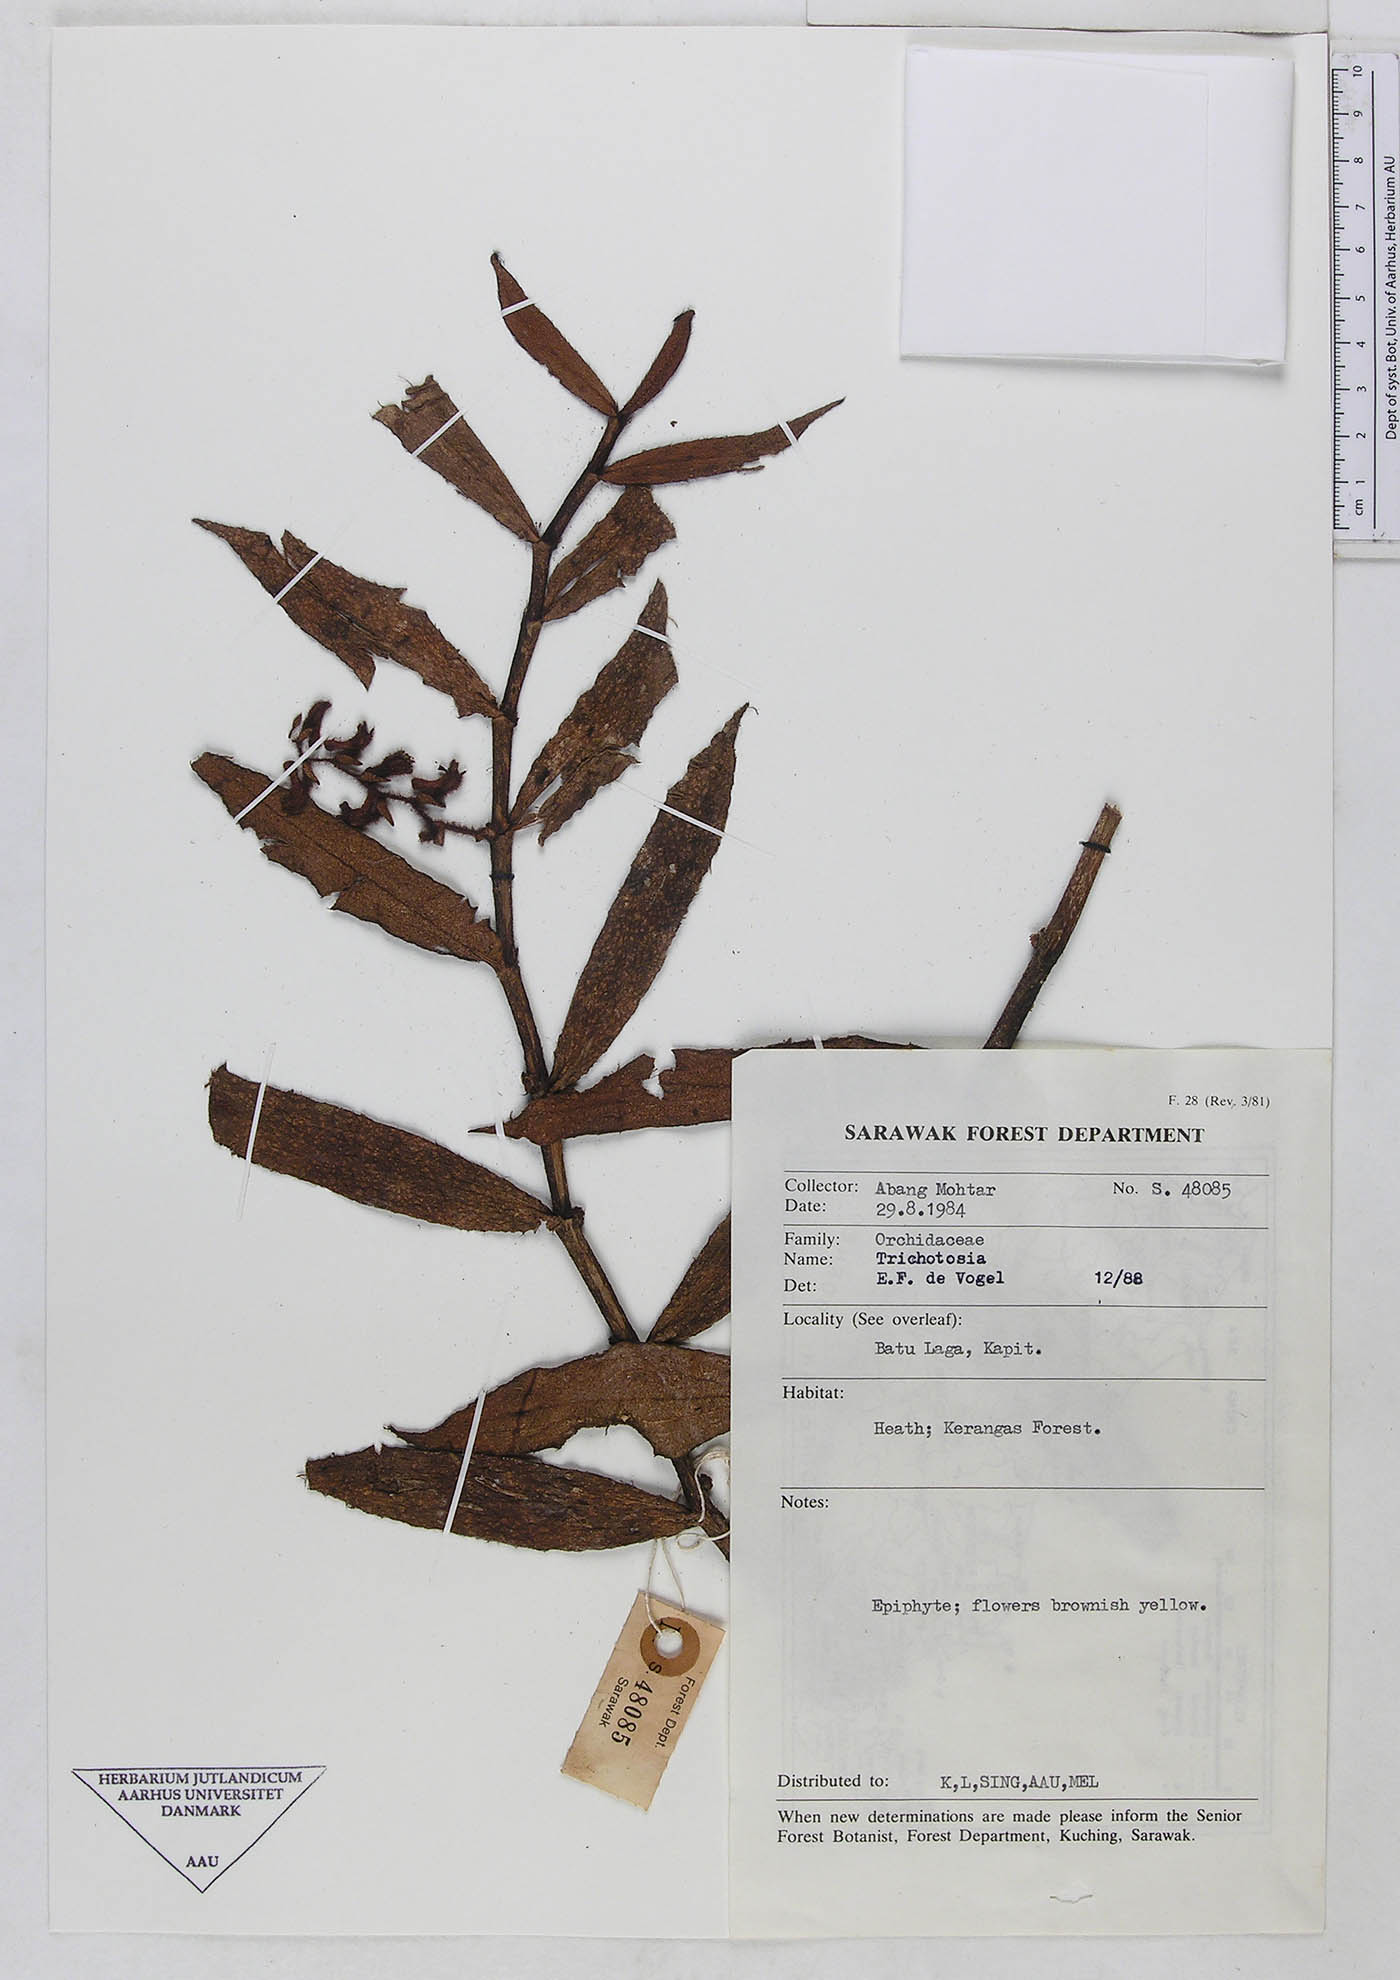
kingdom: Plantae
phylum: Tracheophyta
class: Liliopsida
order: Asparagales
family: Orchidaceae
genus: Trichotosia
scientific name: Trichotosia
